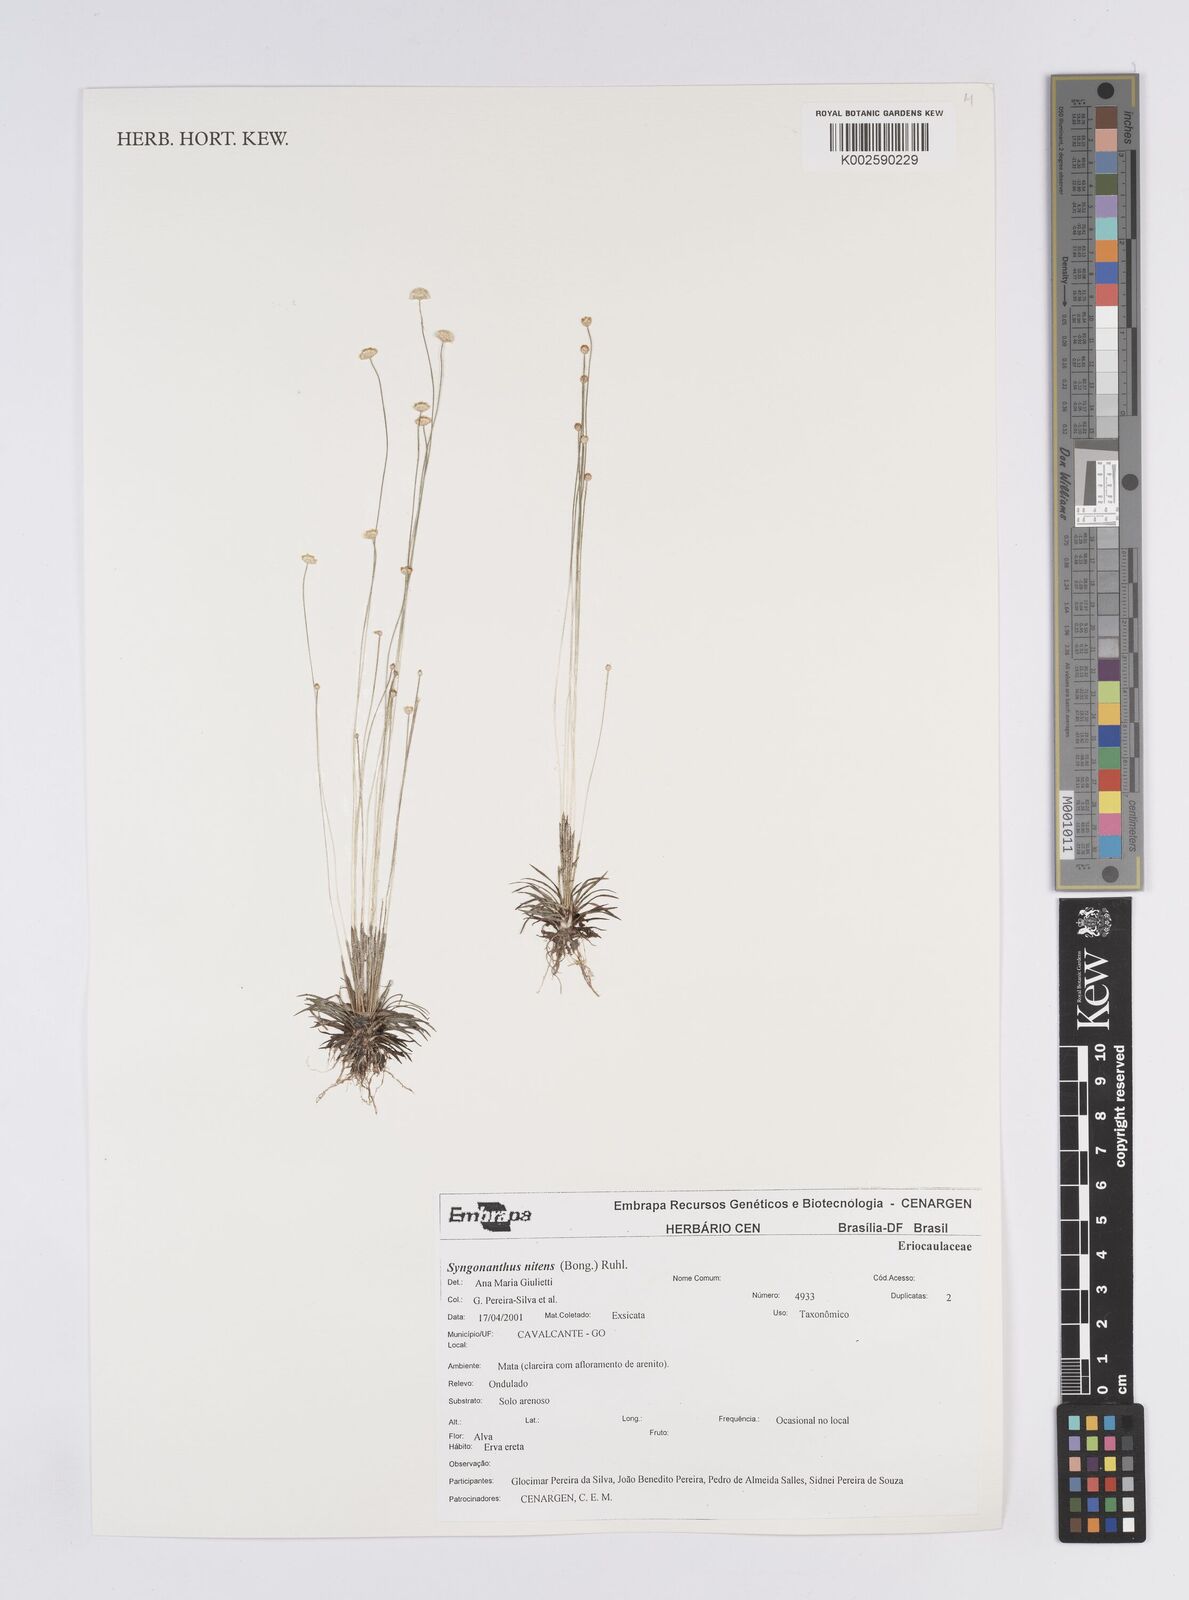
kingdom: Plantae
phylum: Tracheophyta
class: Liliopsida
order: Poales
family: Eriocaulaceae
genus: Syngonanthus
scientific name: Syngonanthus nitens
